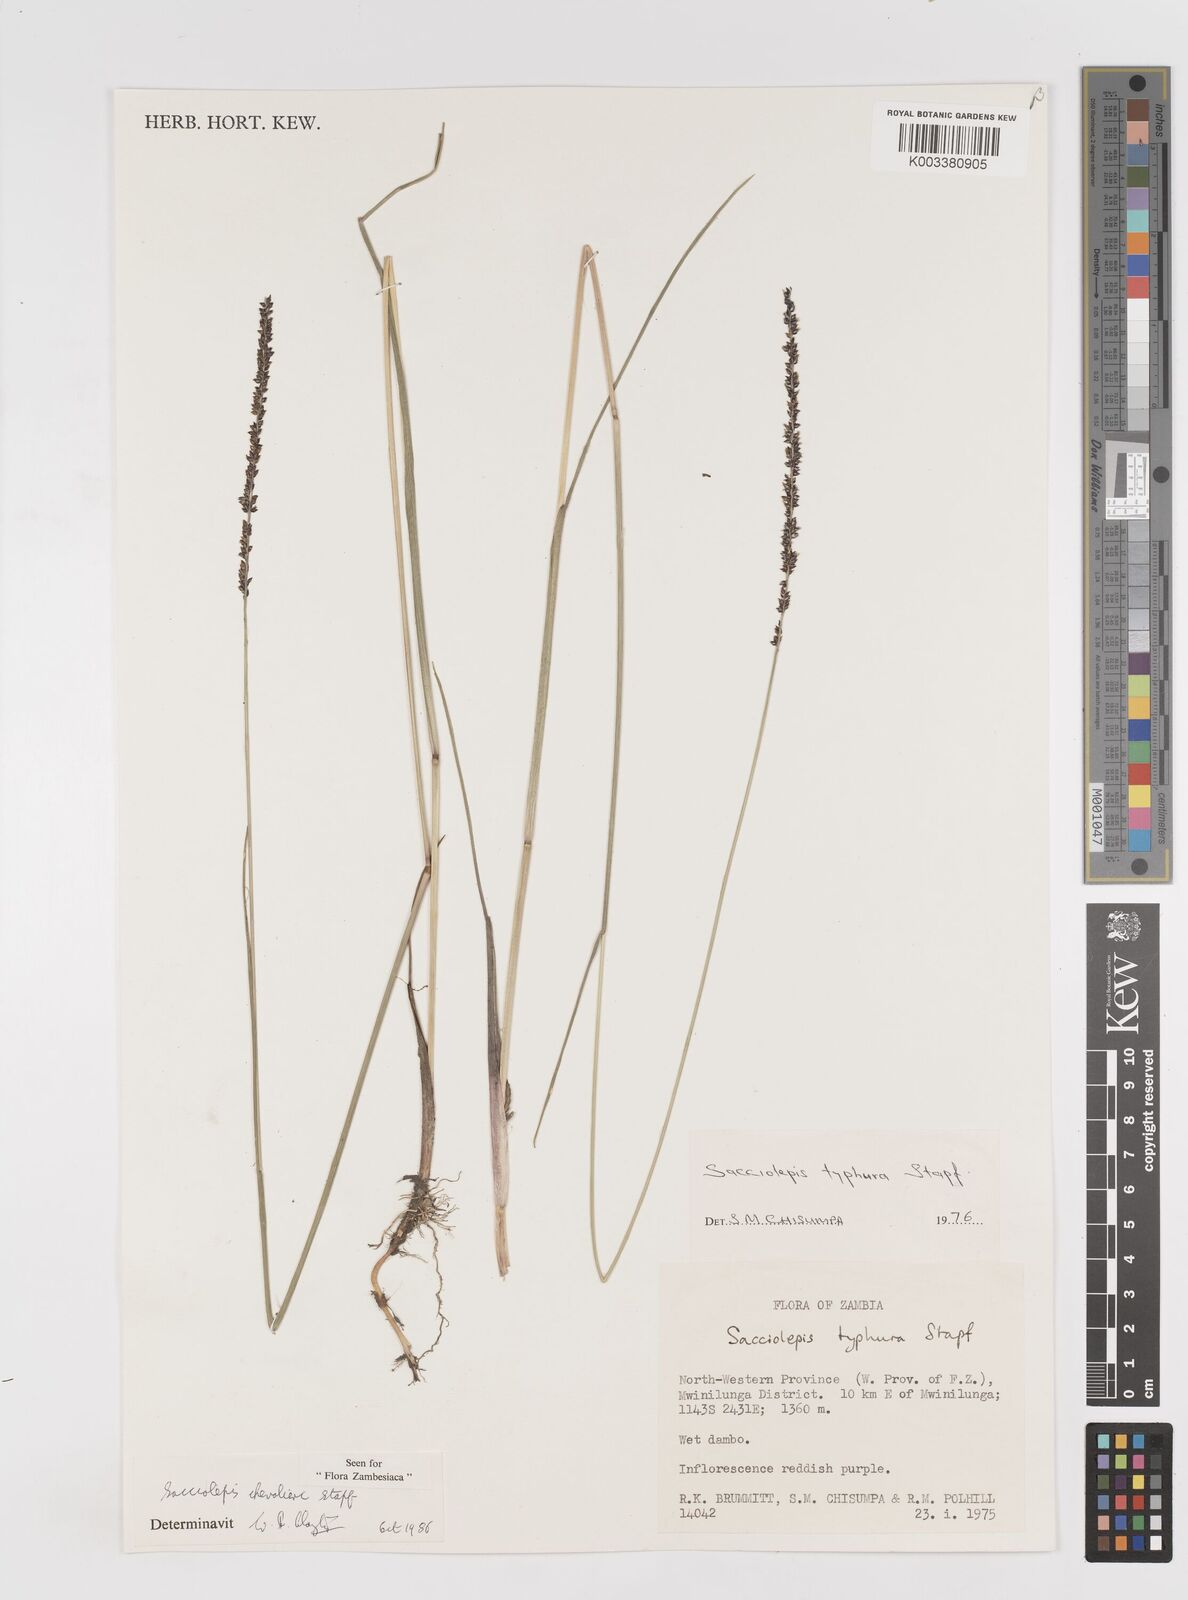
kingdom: Plantae
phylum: Tracheophyta
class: Liliopsida
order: Poales
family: Poaceae
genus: Sacciolepis
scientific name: Sacciolepis chevalieri
